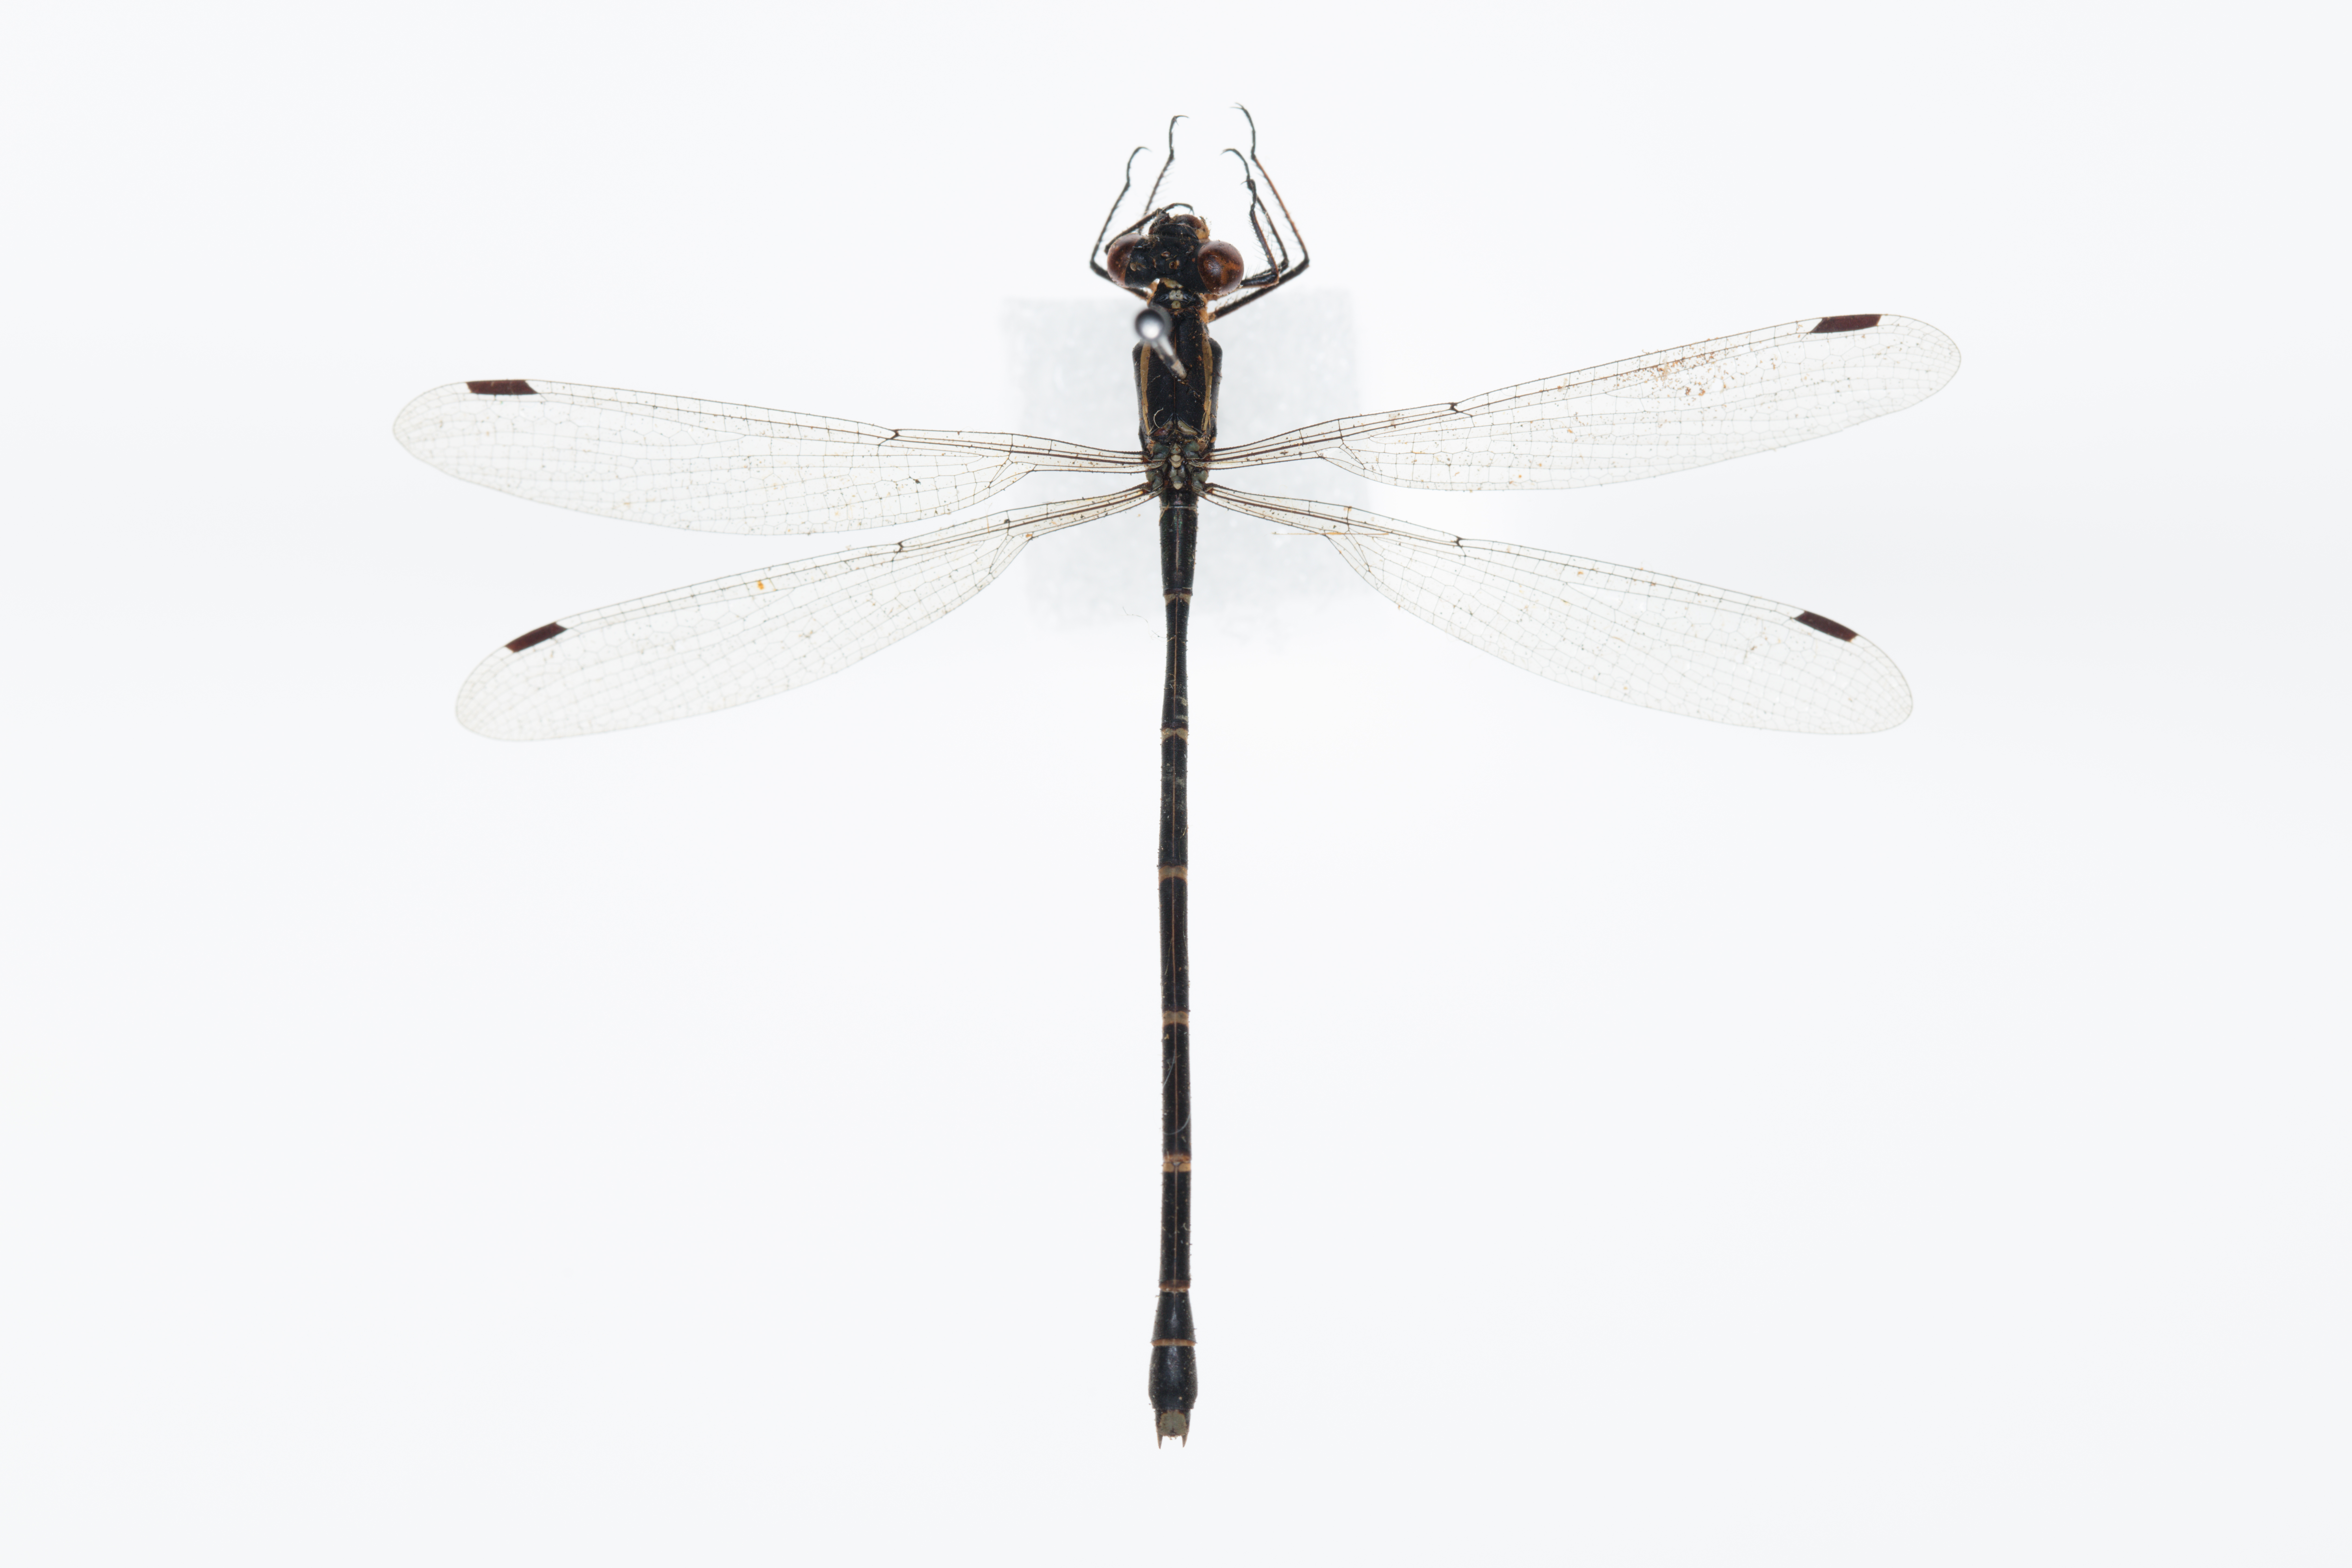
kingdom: Animalia
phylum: Arthropoda
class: Insecta
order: Odonata
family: Lestidae
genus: Austrolestes
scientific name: Austrolestes colensonis
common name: Blue damselfly
